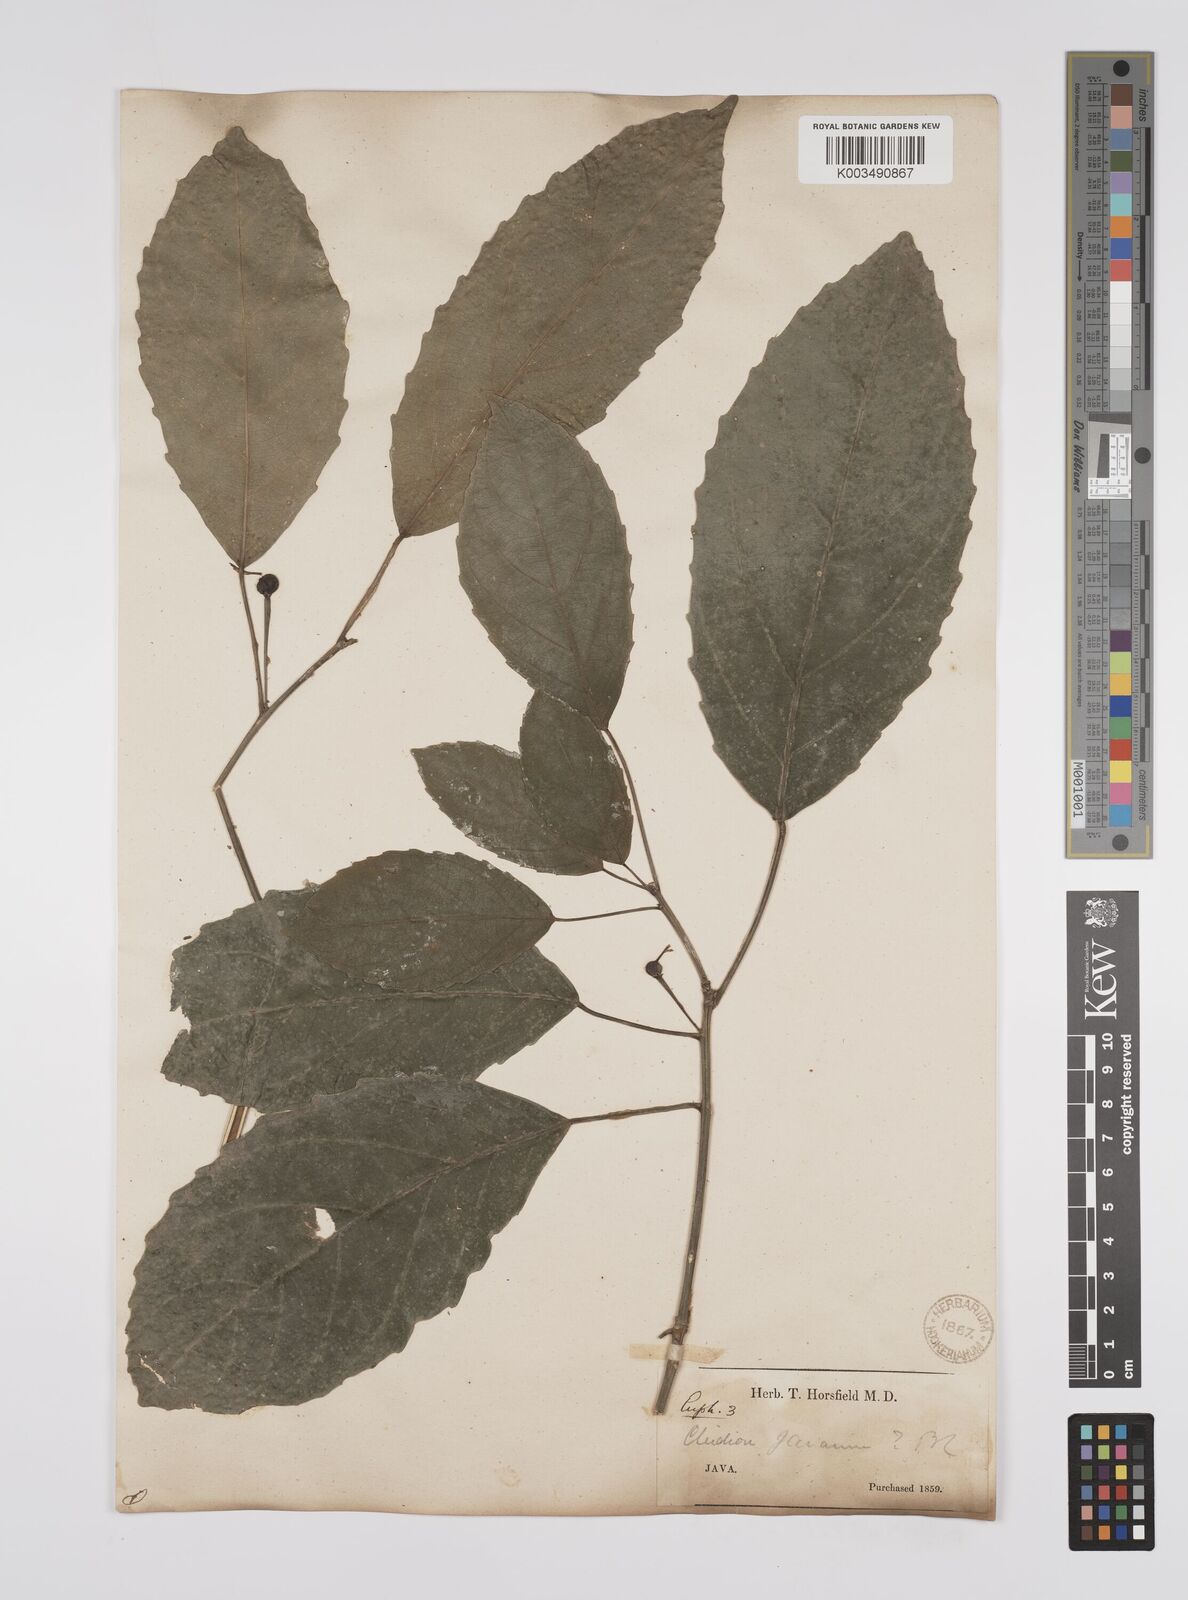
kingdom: Plantae
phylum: Tracheophyta
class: Magnoliopsida
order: Malpighiales
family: Euphorbiaceae
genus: Acalypha
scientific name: Acalypha spiciflora
